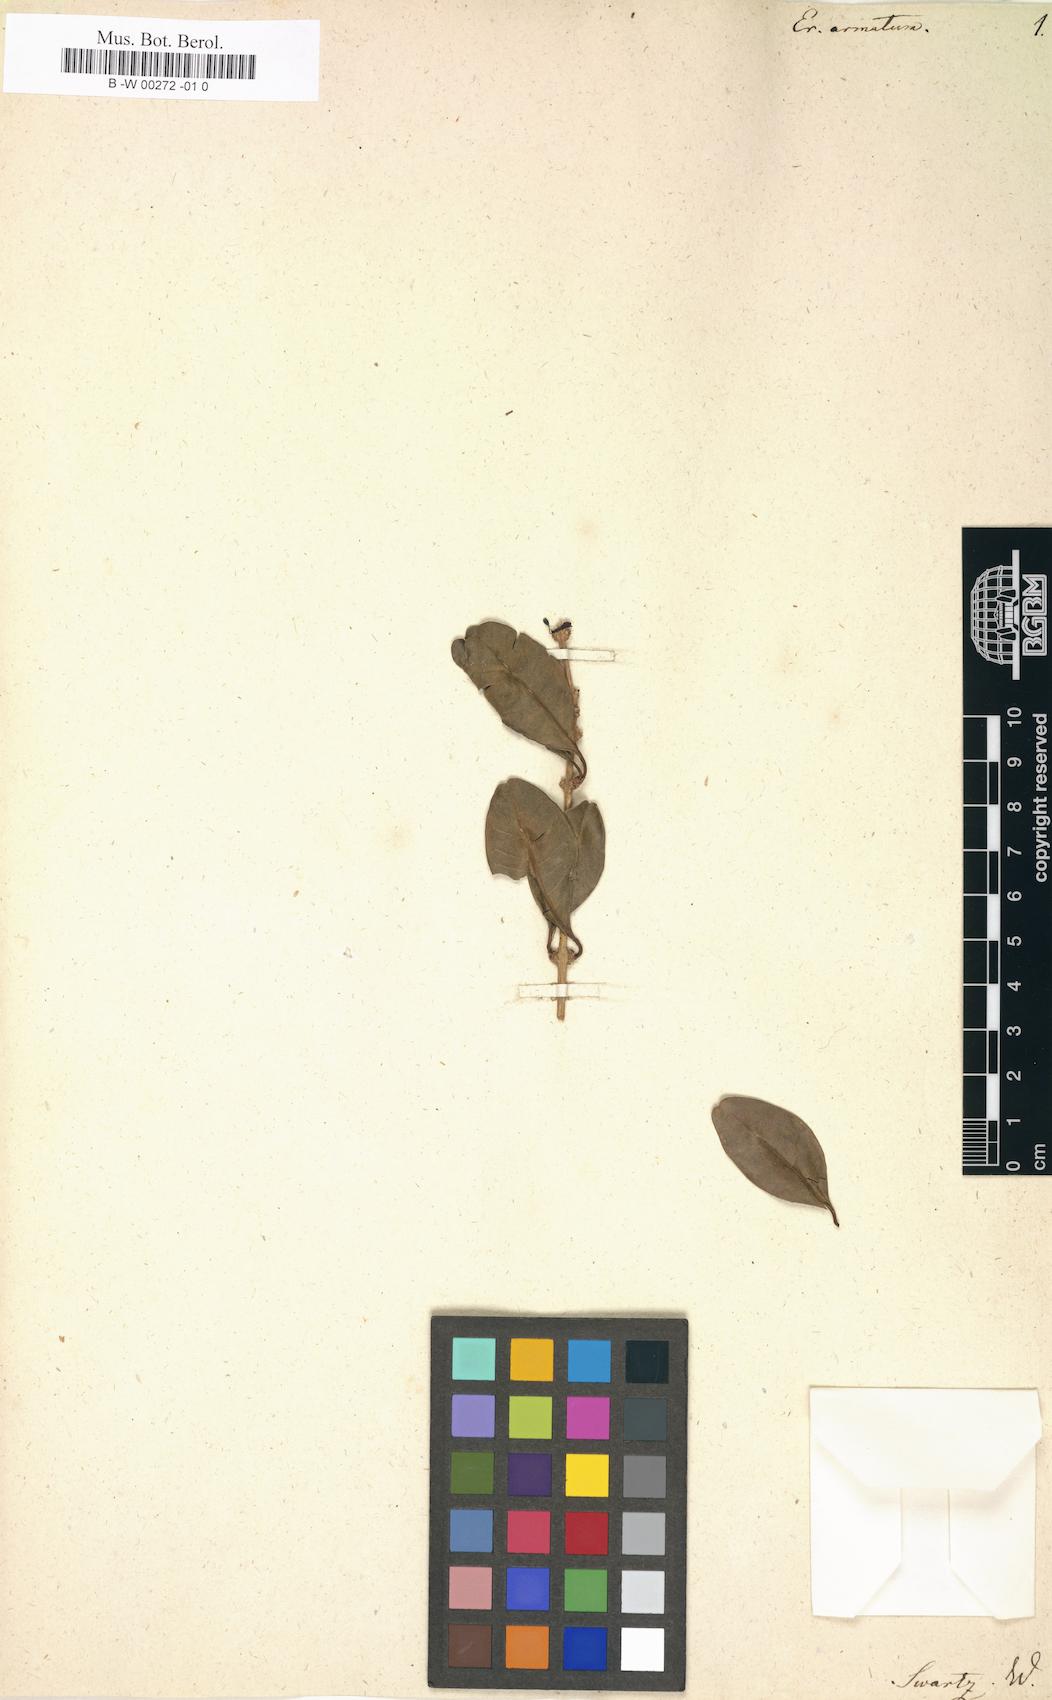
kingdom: Plantae
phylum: Tracheophyta
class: Magnoliopsida
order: Lamiales
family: Acanthaceae
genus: Oplonia
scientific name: Oplonia armata
